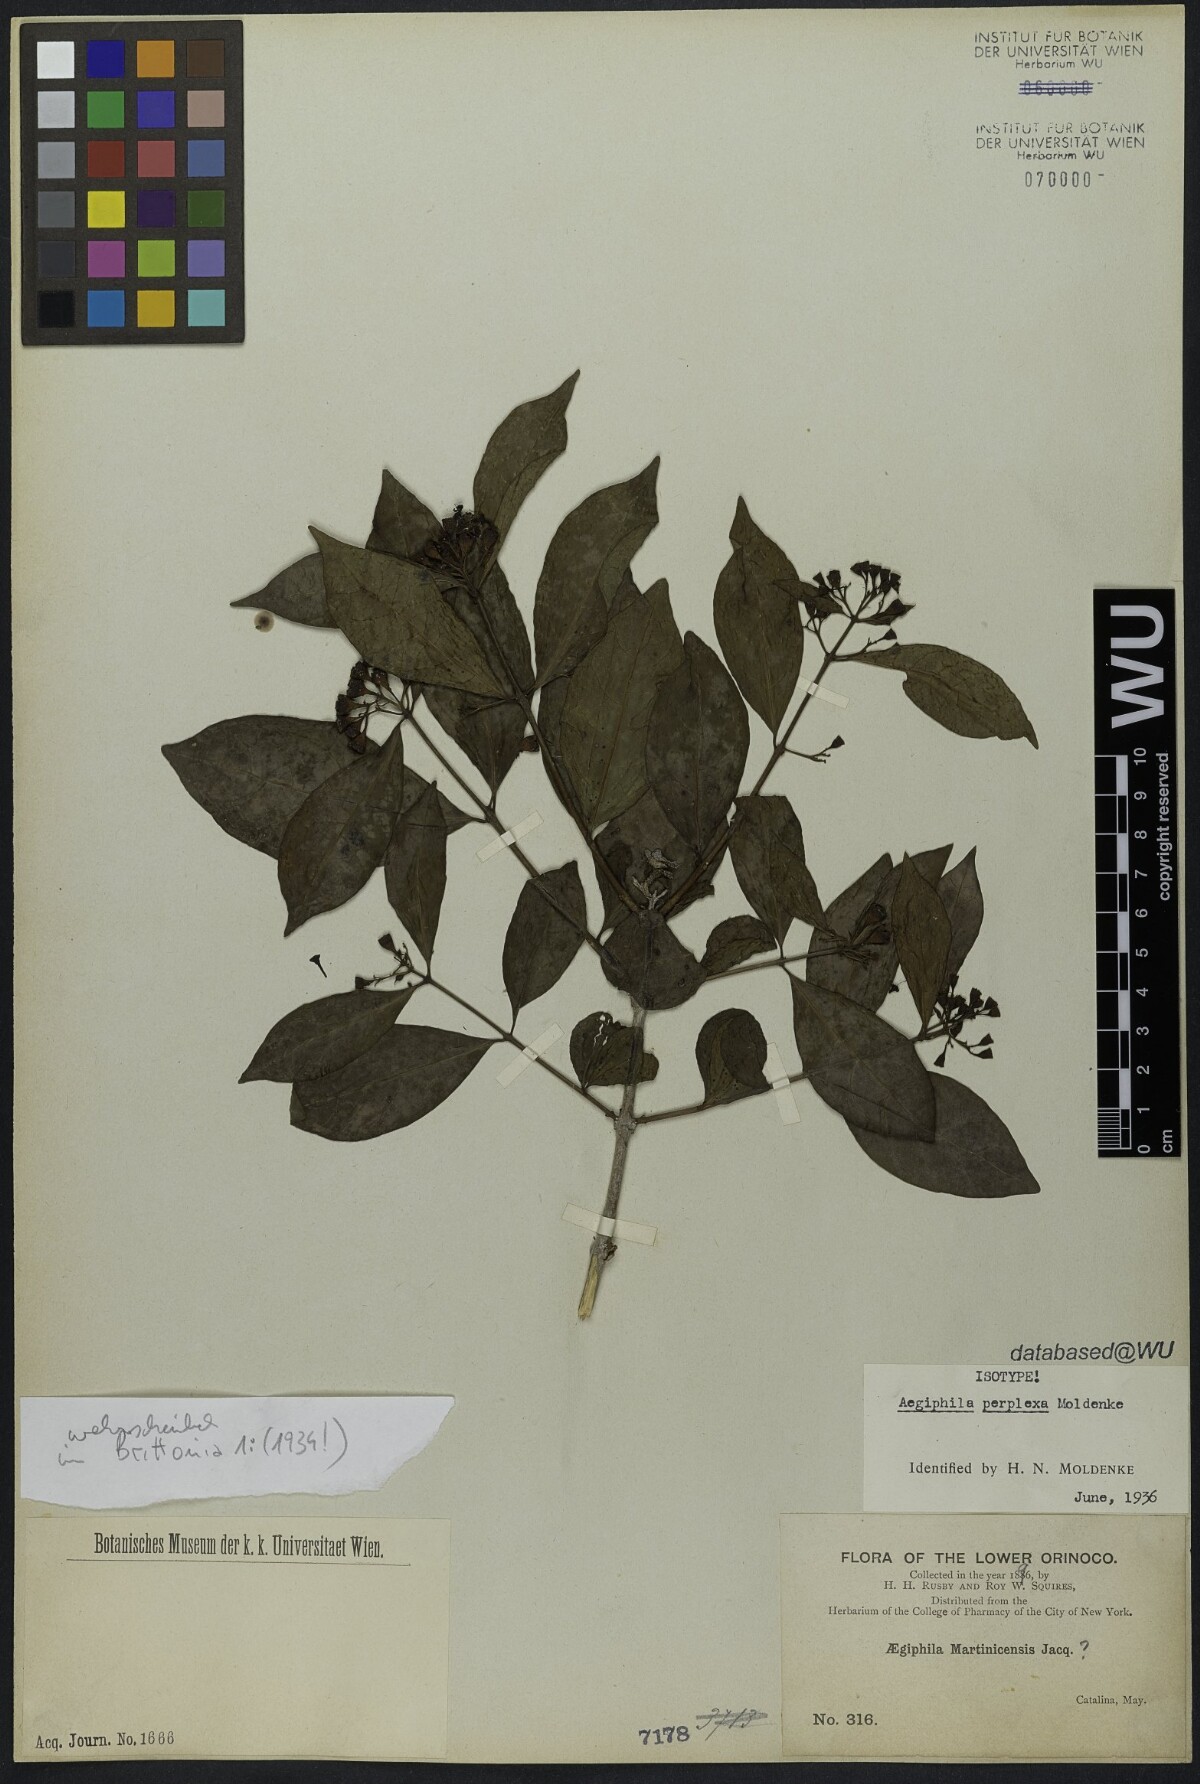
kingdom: Plantae
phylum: Tracheophyta
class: Magnoliopsida
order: Lamiales
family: Lamiaceae
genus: Aegiphila
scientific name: Aegiphila perplexa
